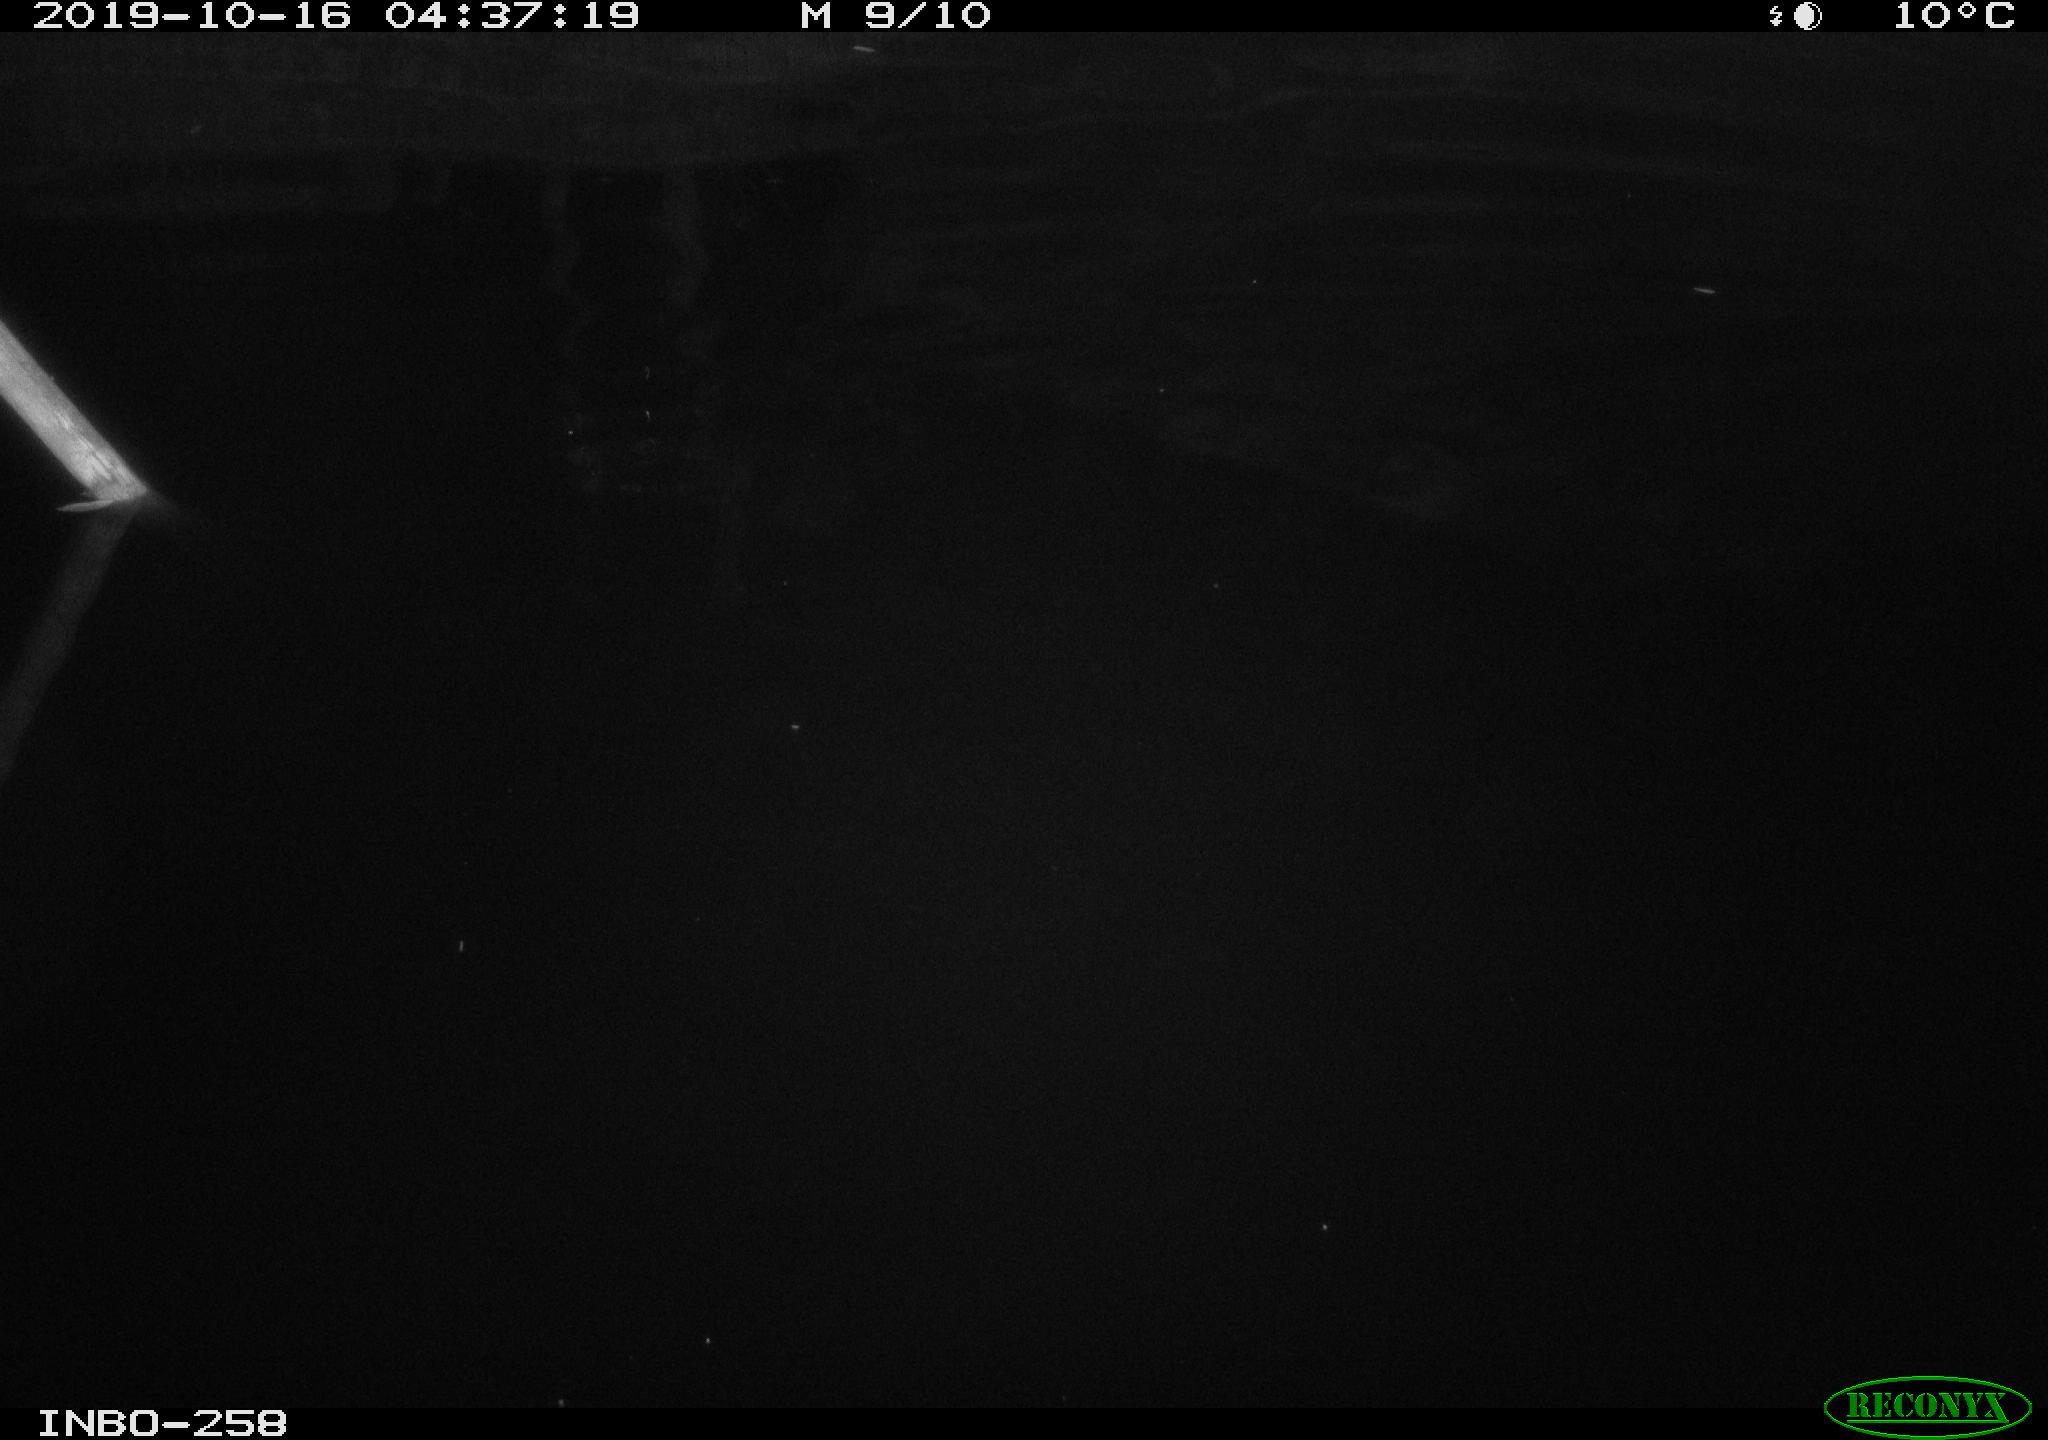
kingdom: Animalia
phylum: Chordata
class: Aves
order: Anseriformes
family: Anatidae
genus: Anas
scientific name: Anas platyrhynchos
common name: Mallard
